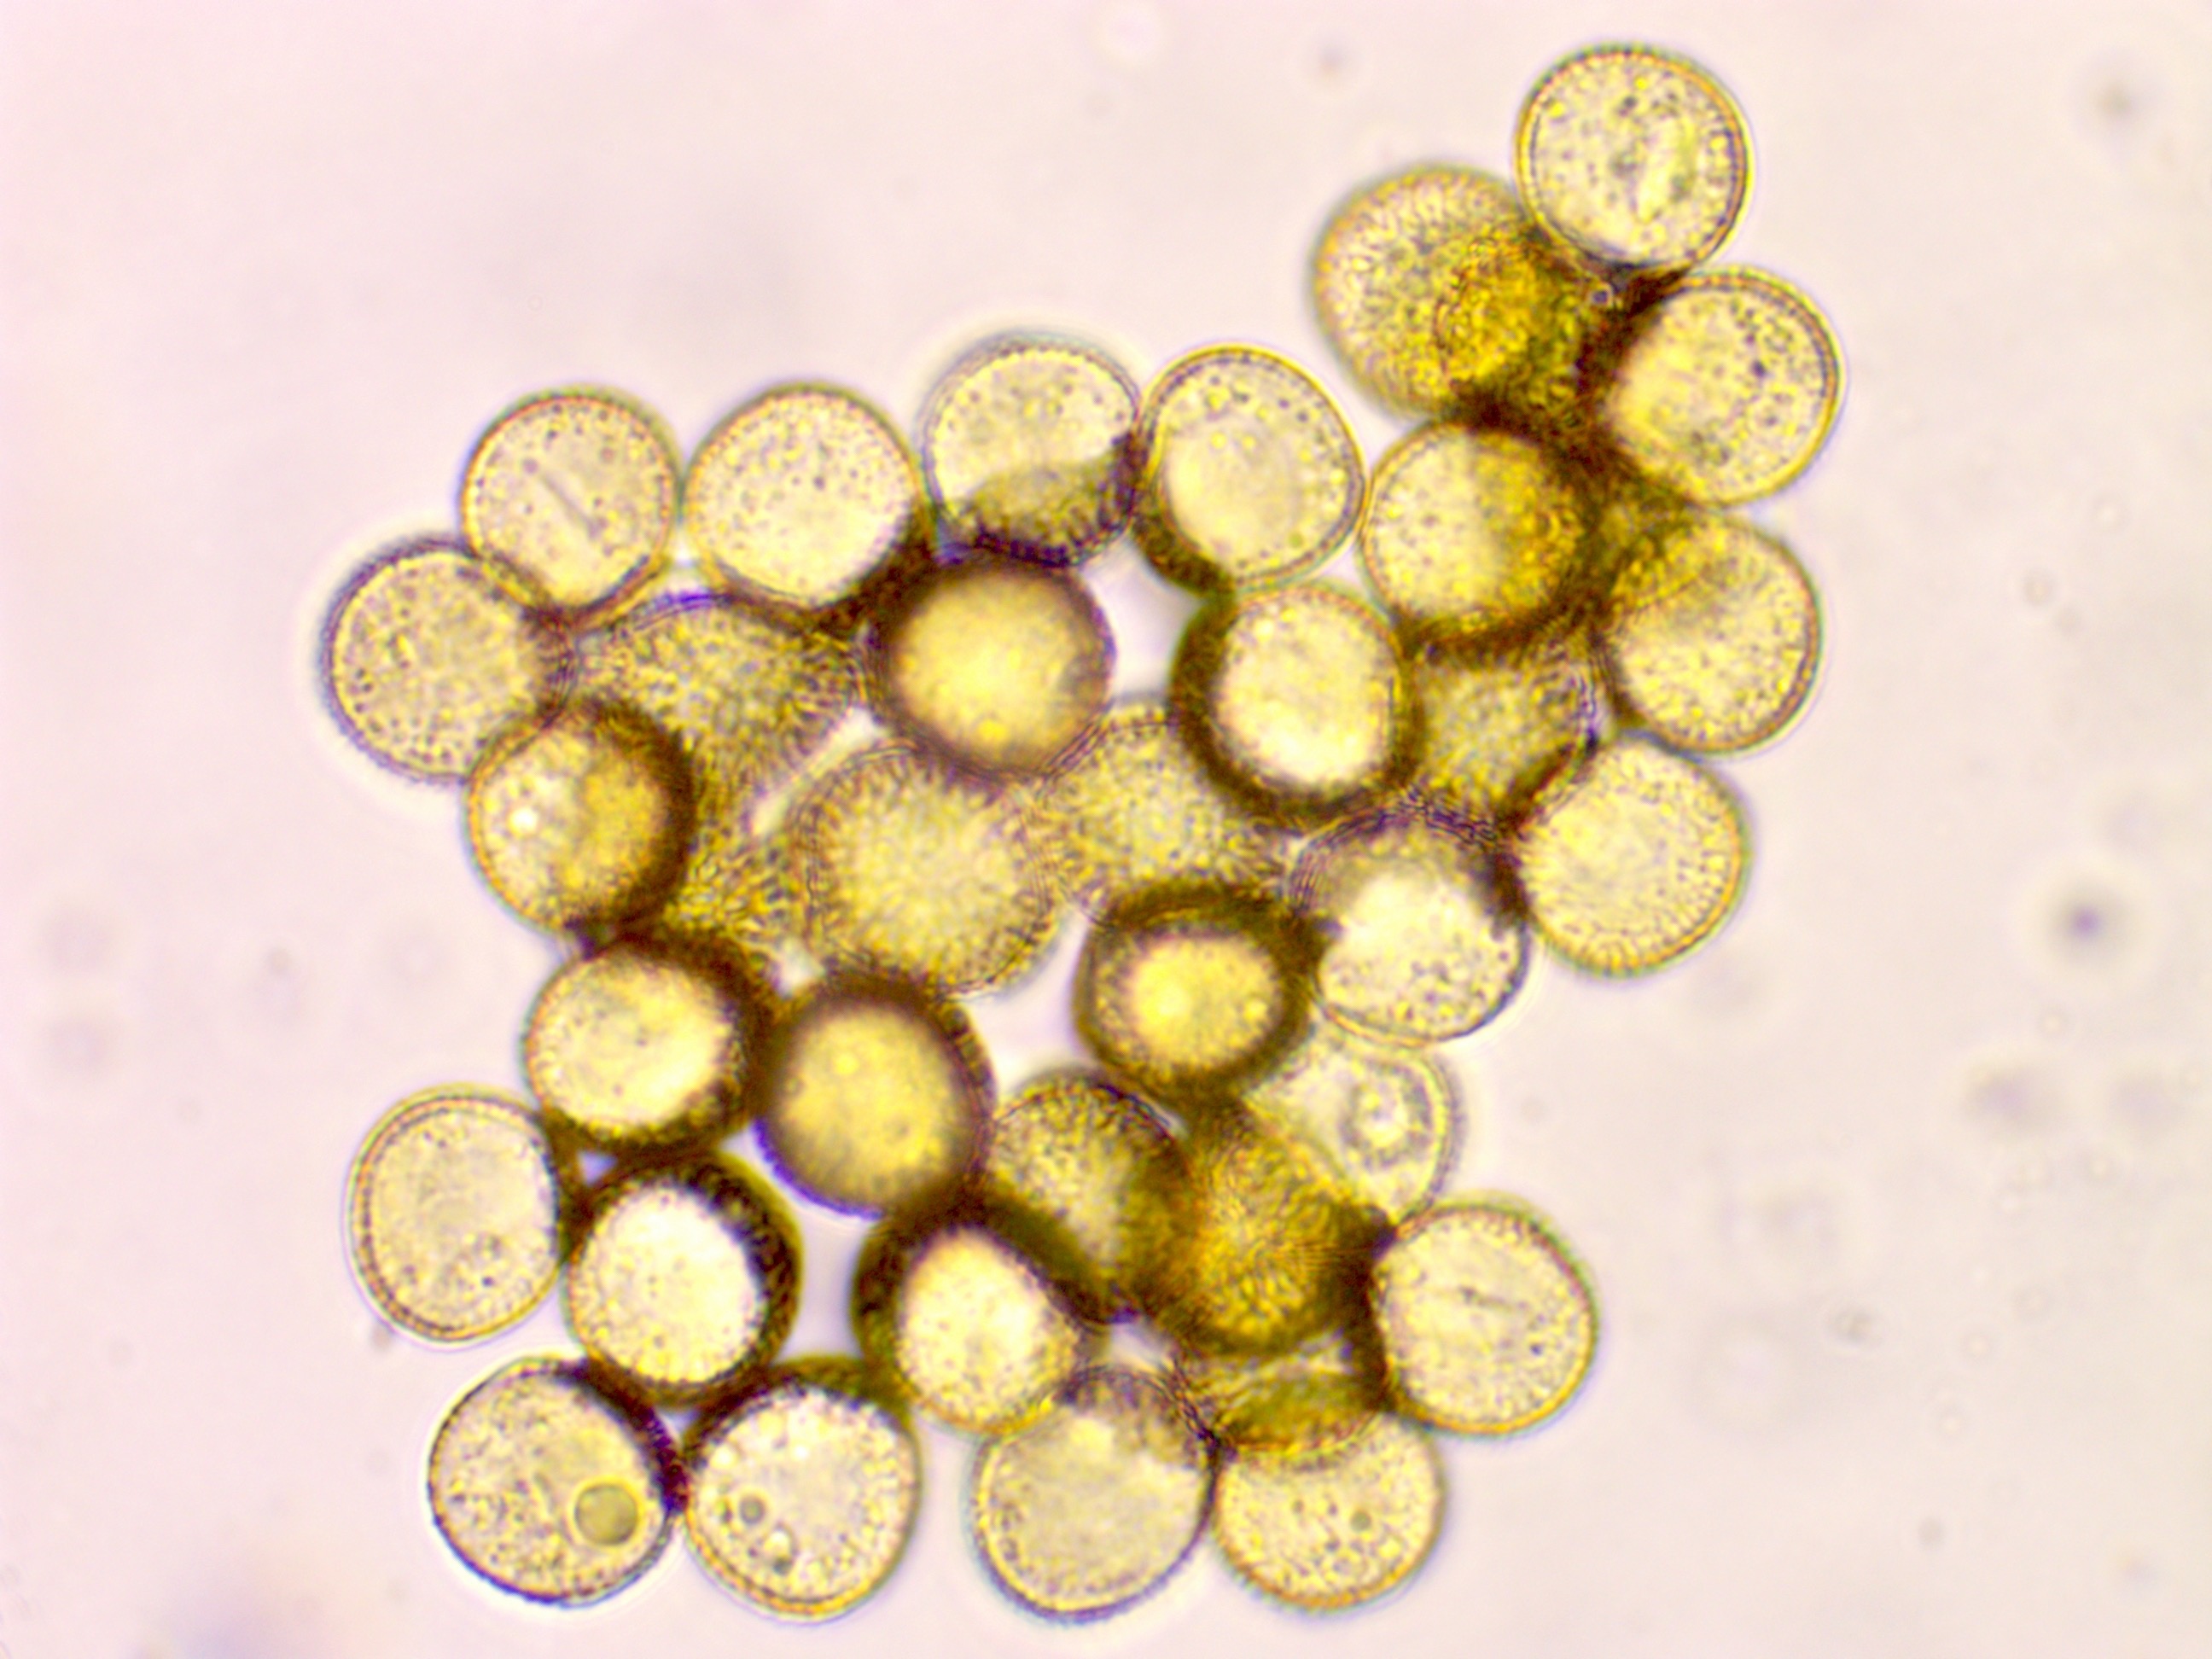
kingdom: Protozoa
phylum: Mycetozoa
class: Myxomycetes
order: Trichiales
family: Trichiaceae
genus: Trichia
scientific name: Trichia varia
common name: foranderlig hårbold
